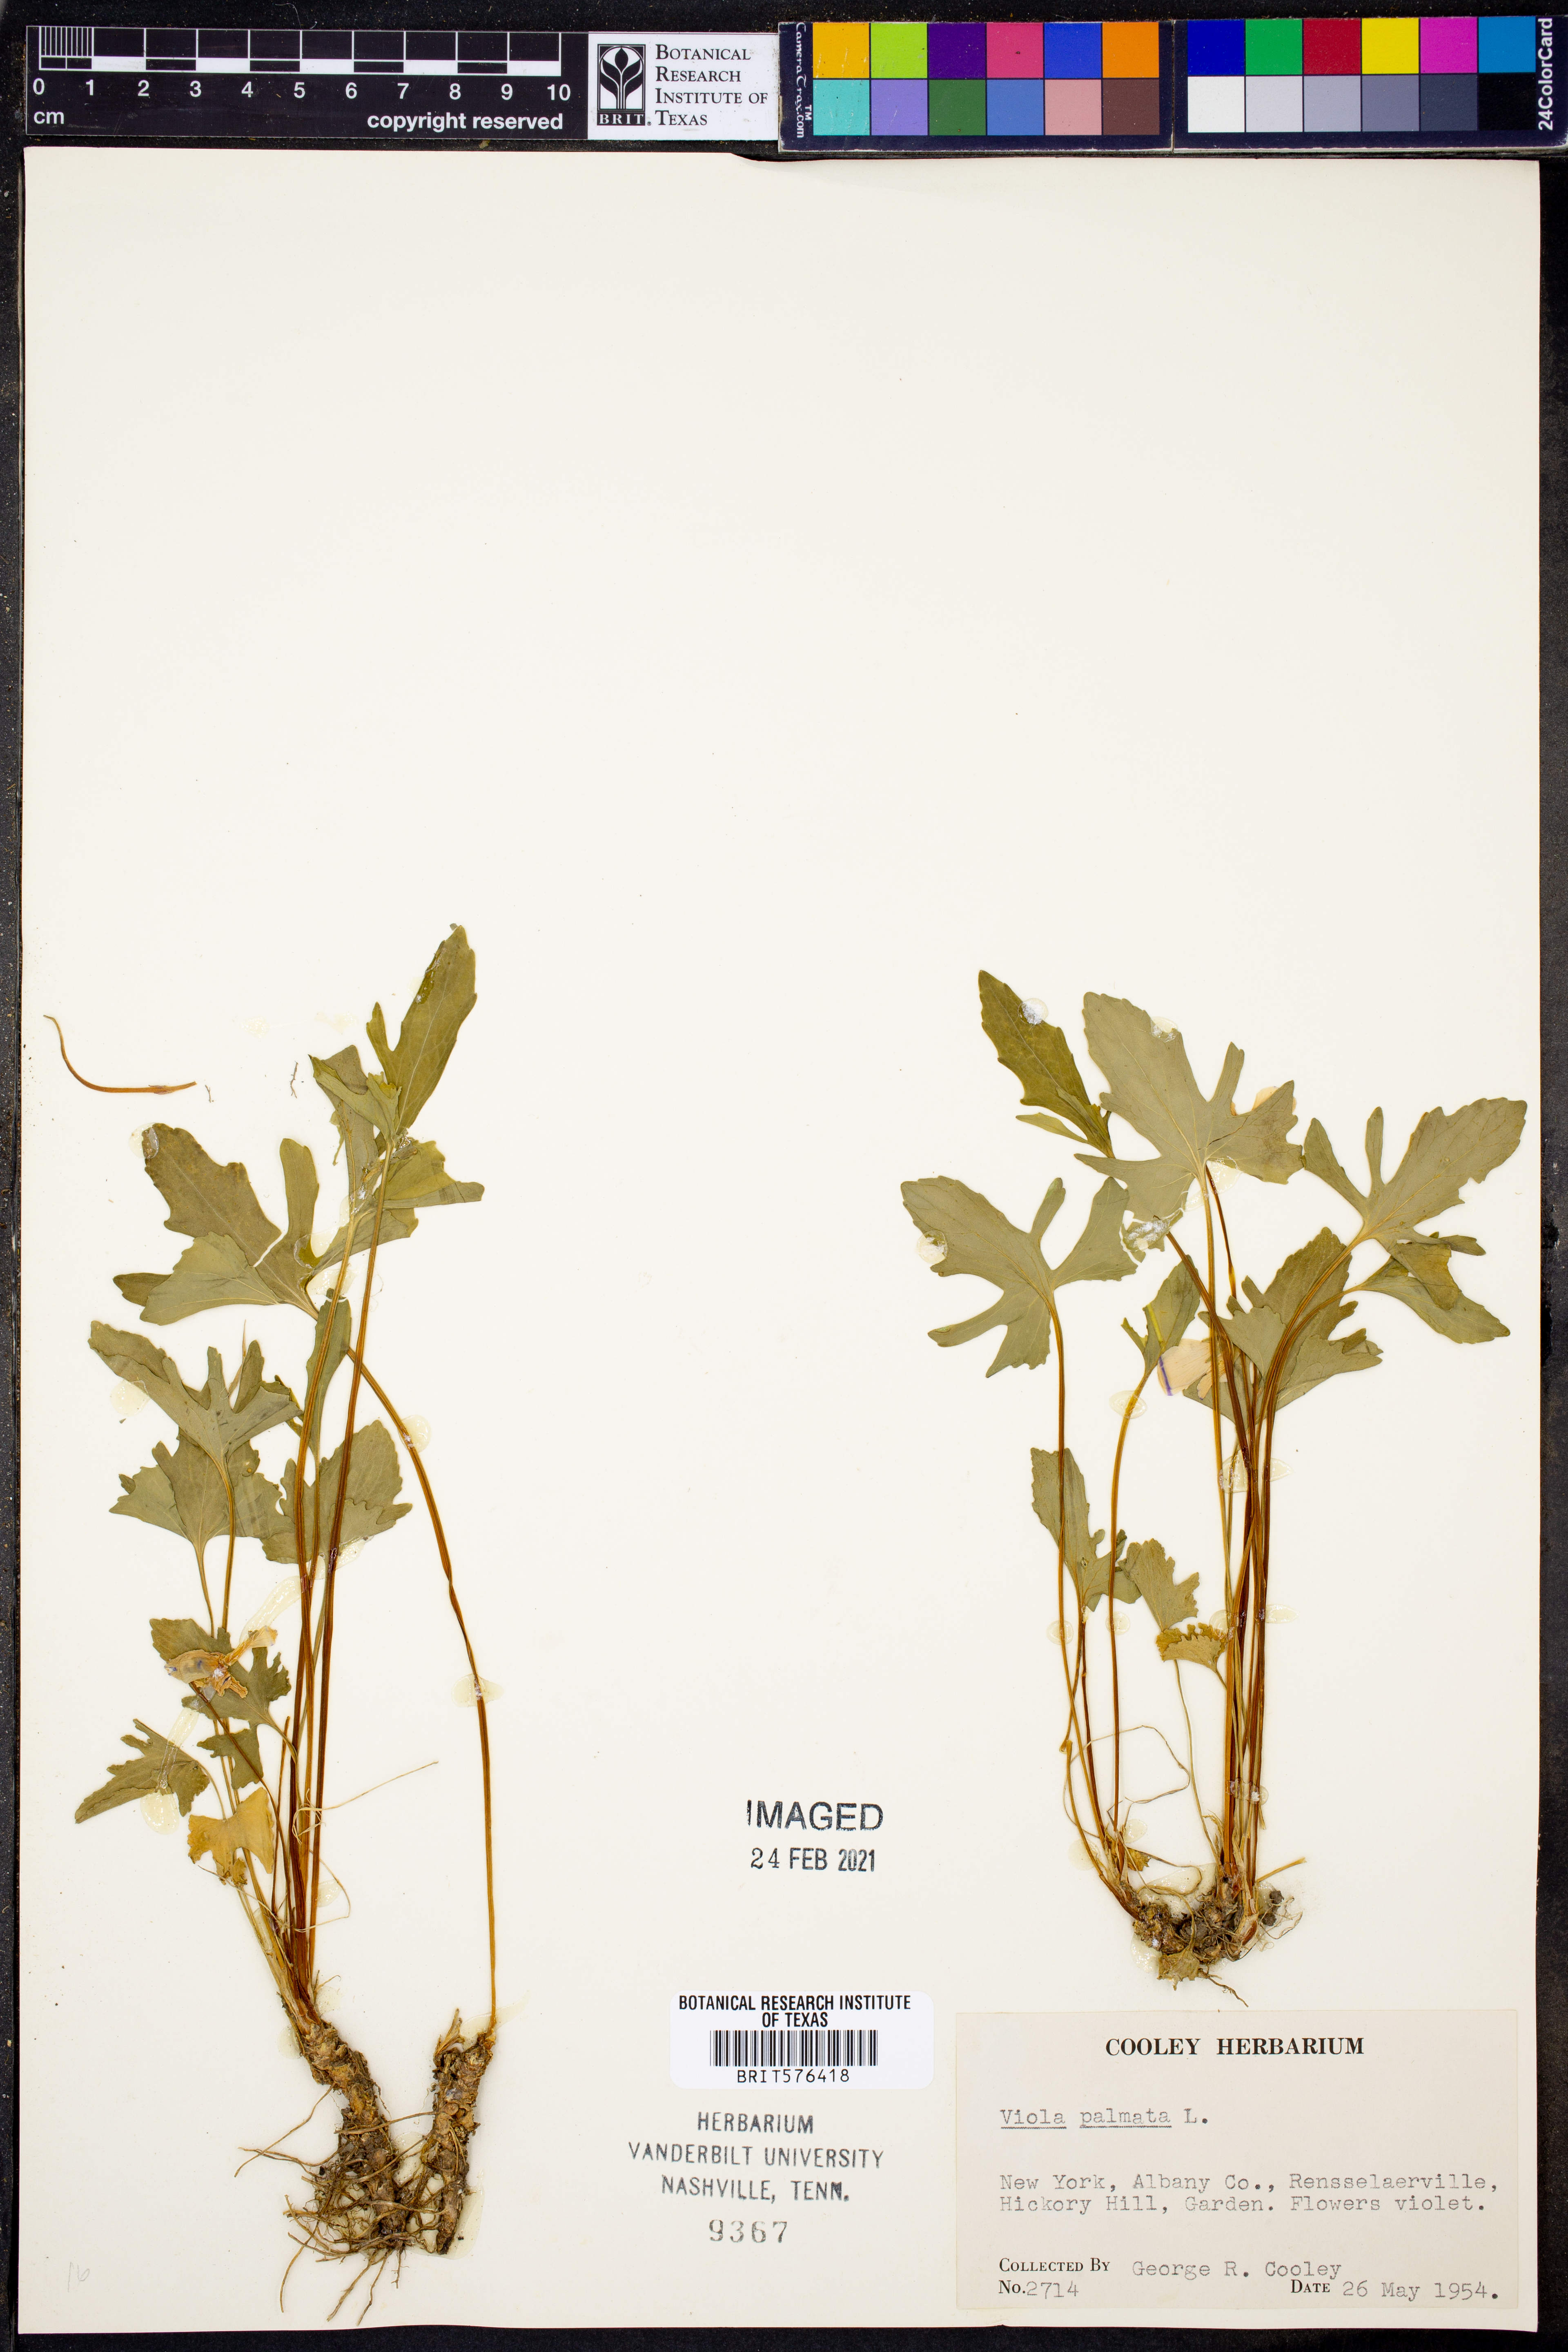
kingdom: Plantae
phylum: Tracheophyta
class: Magnoliopsida
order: Malpighiales
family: Violaceae
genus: Viola
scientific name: Viola palmata
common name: Early blue violet
